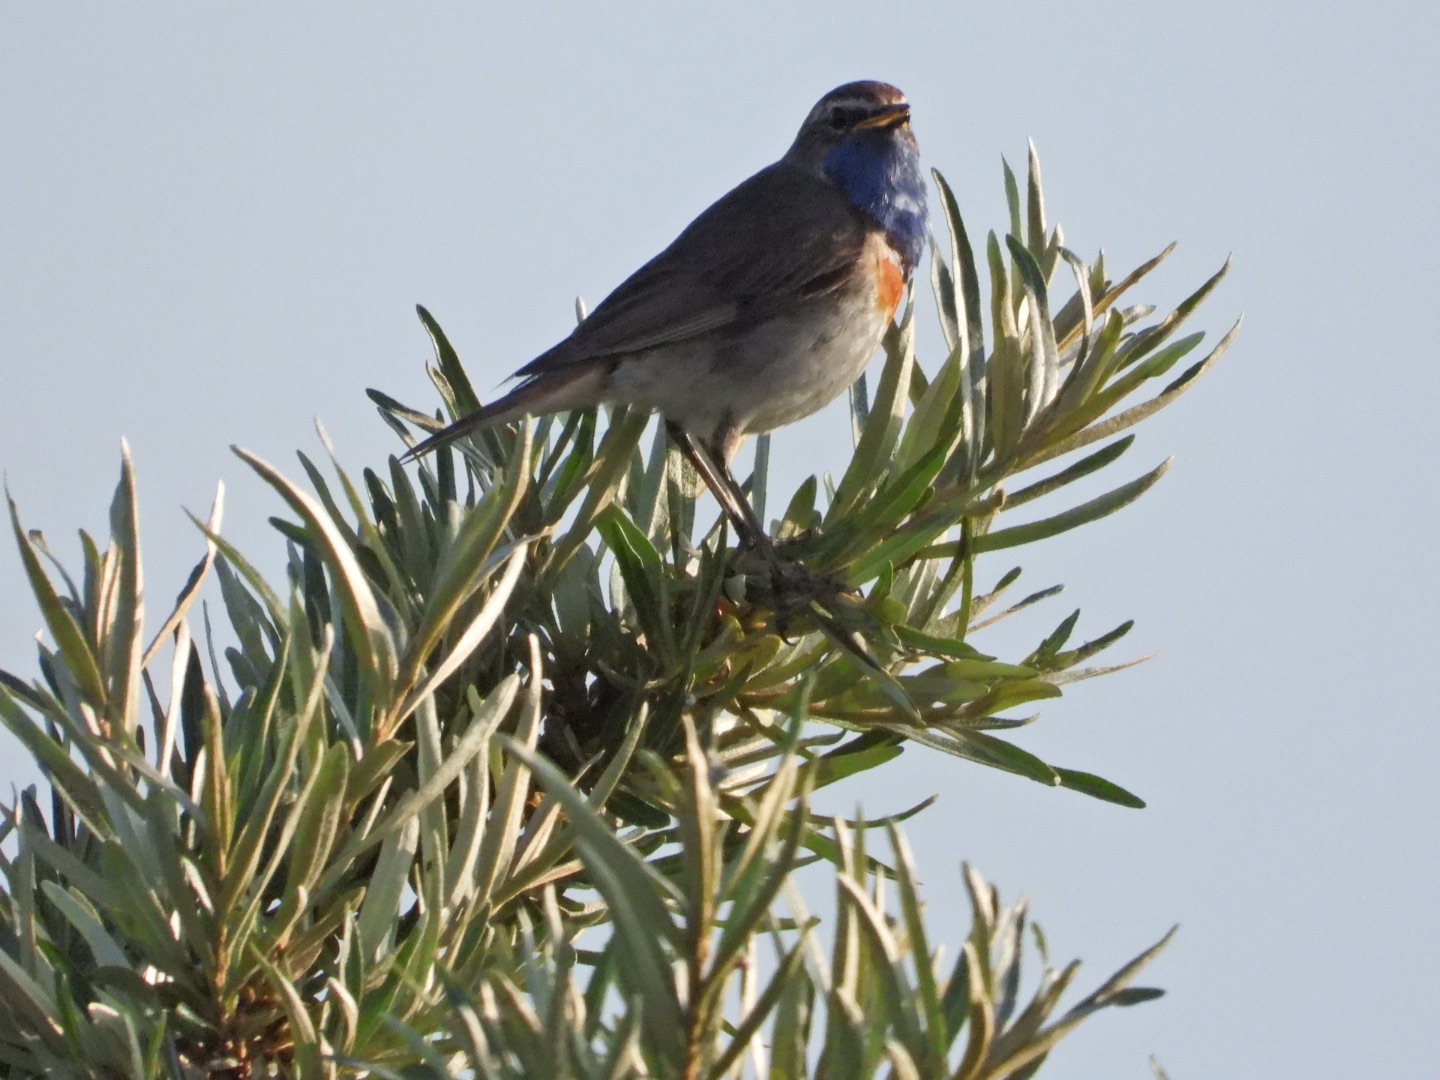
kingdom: Animalia
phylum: Chordata
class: Aves
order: Passeriformes
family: Muscicapidae
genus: Luscinia
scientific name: Luscinia svecica
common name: Blåhals
